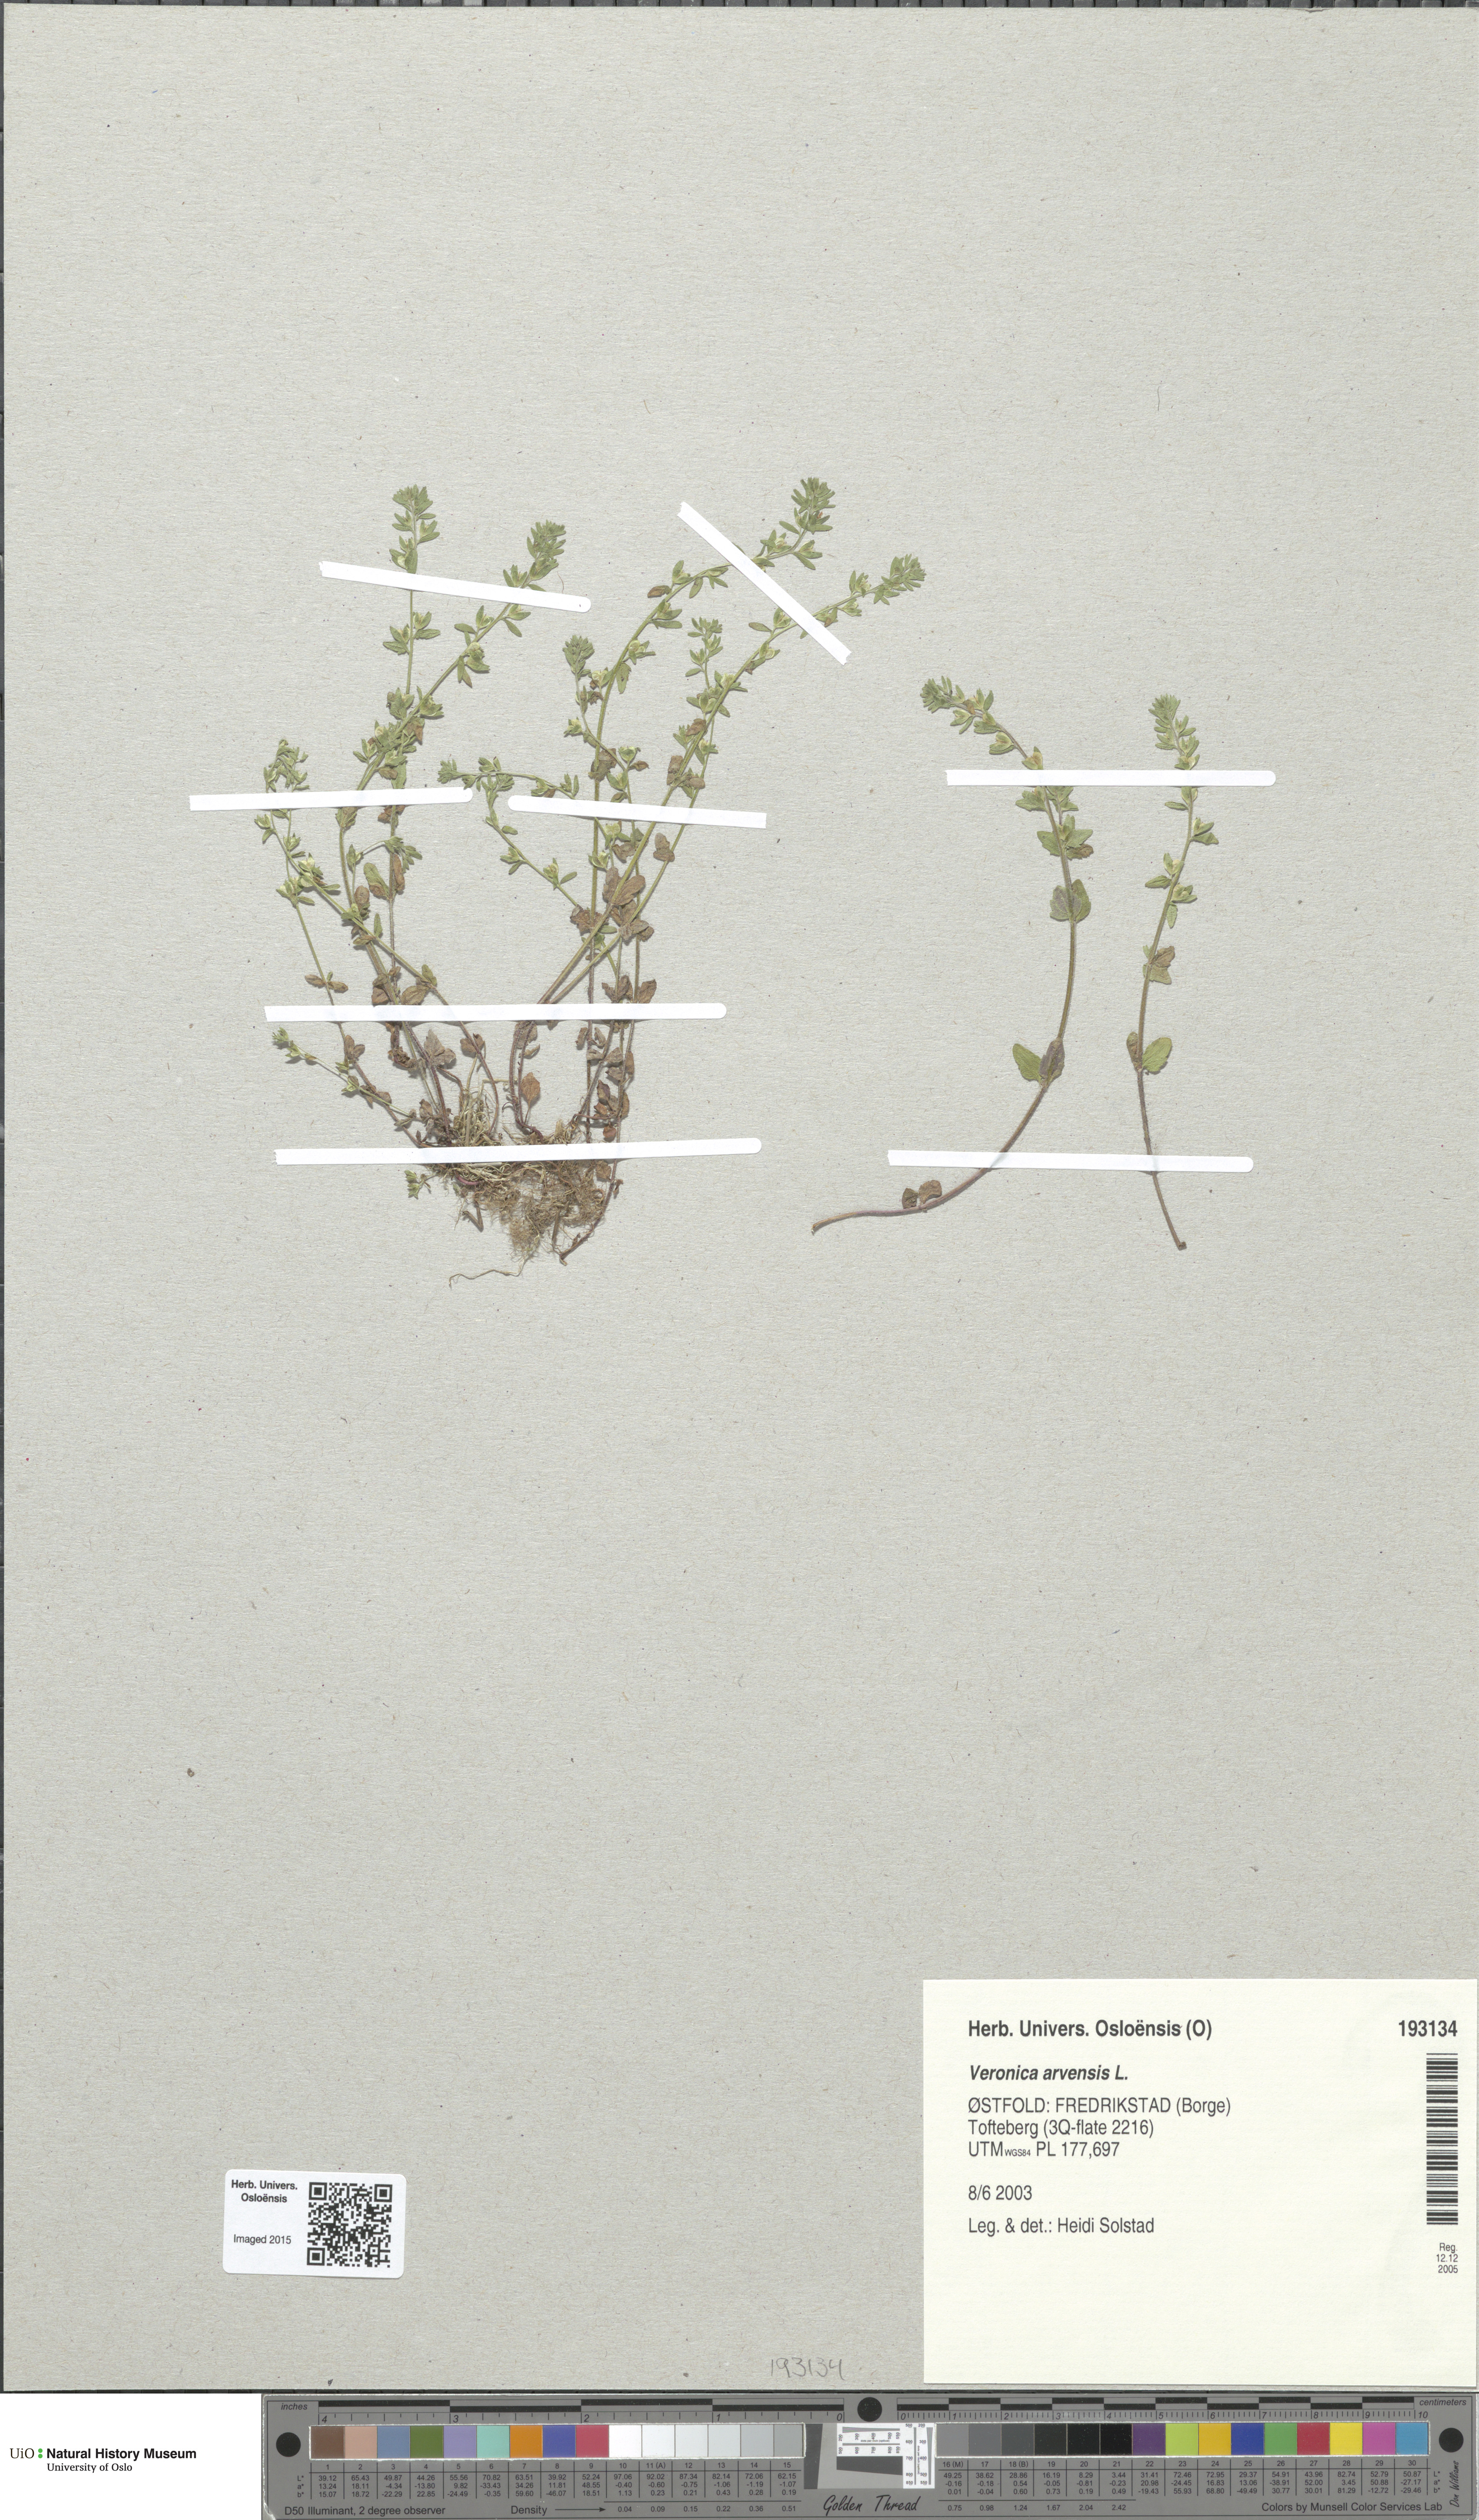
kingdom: Plantae
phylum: Tracheophyta
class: Magnoliopsida
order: Lamiales
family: Plantaginaceae
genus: Veronica
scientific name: Veronica arvensis
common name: Corn speedwell
